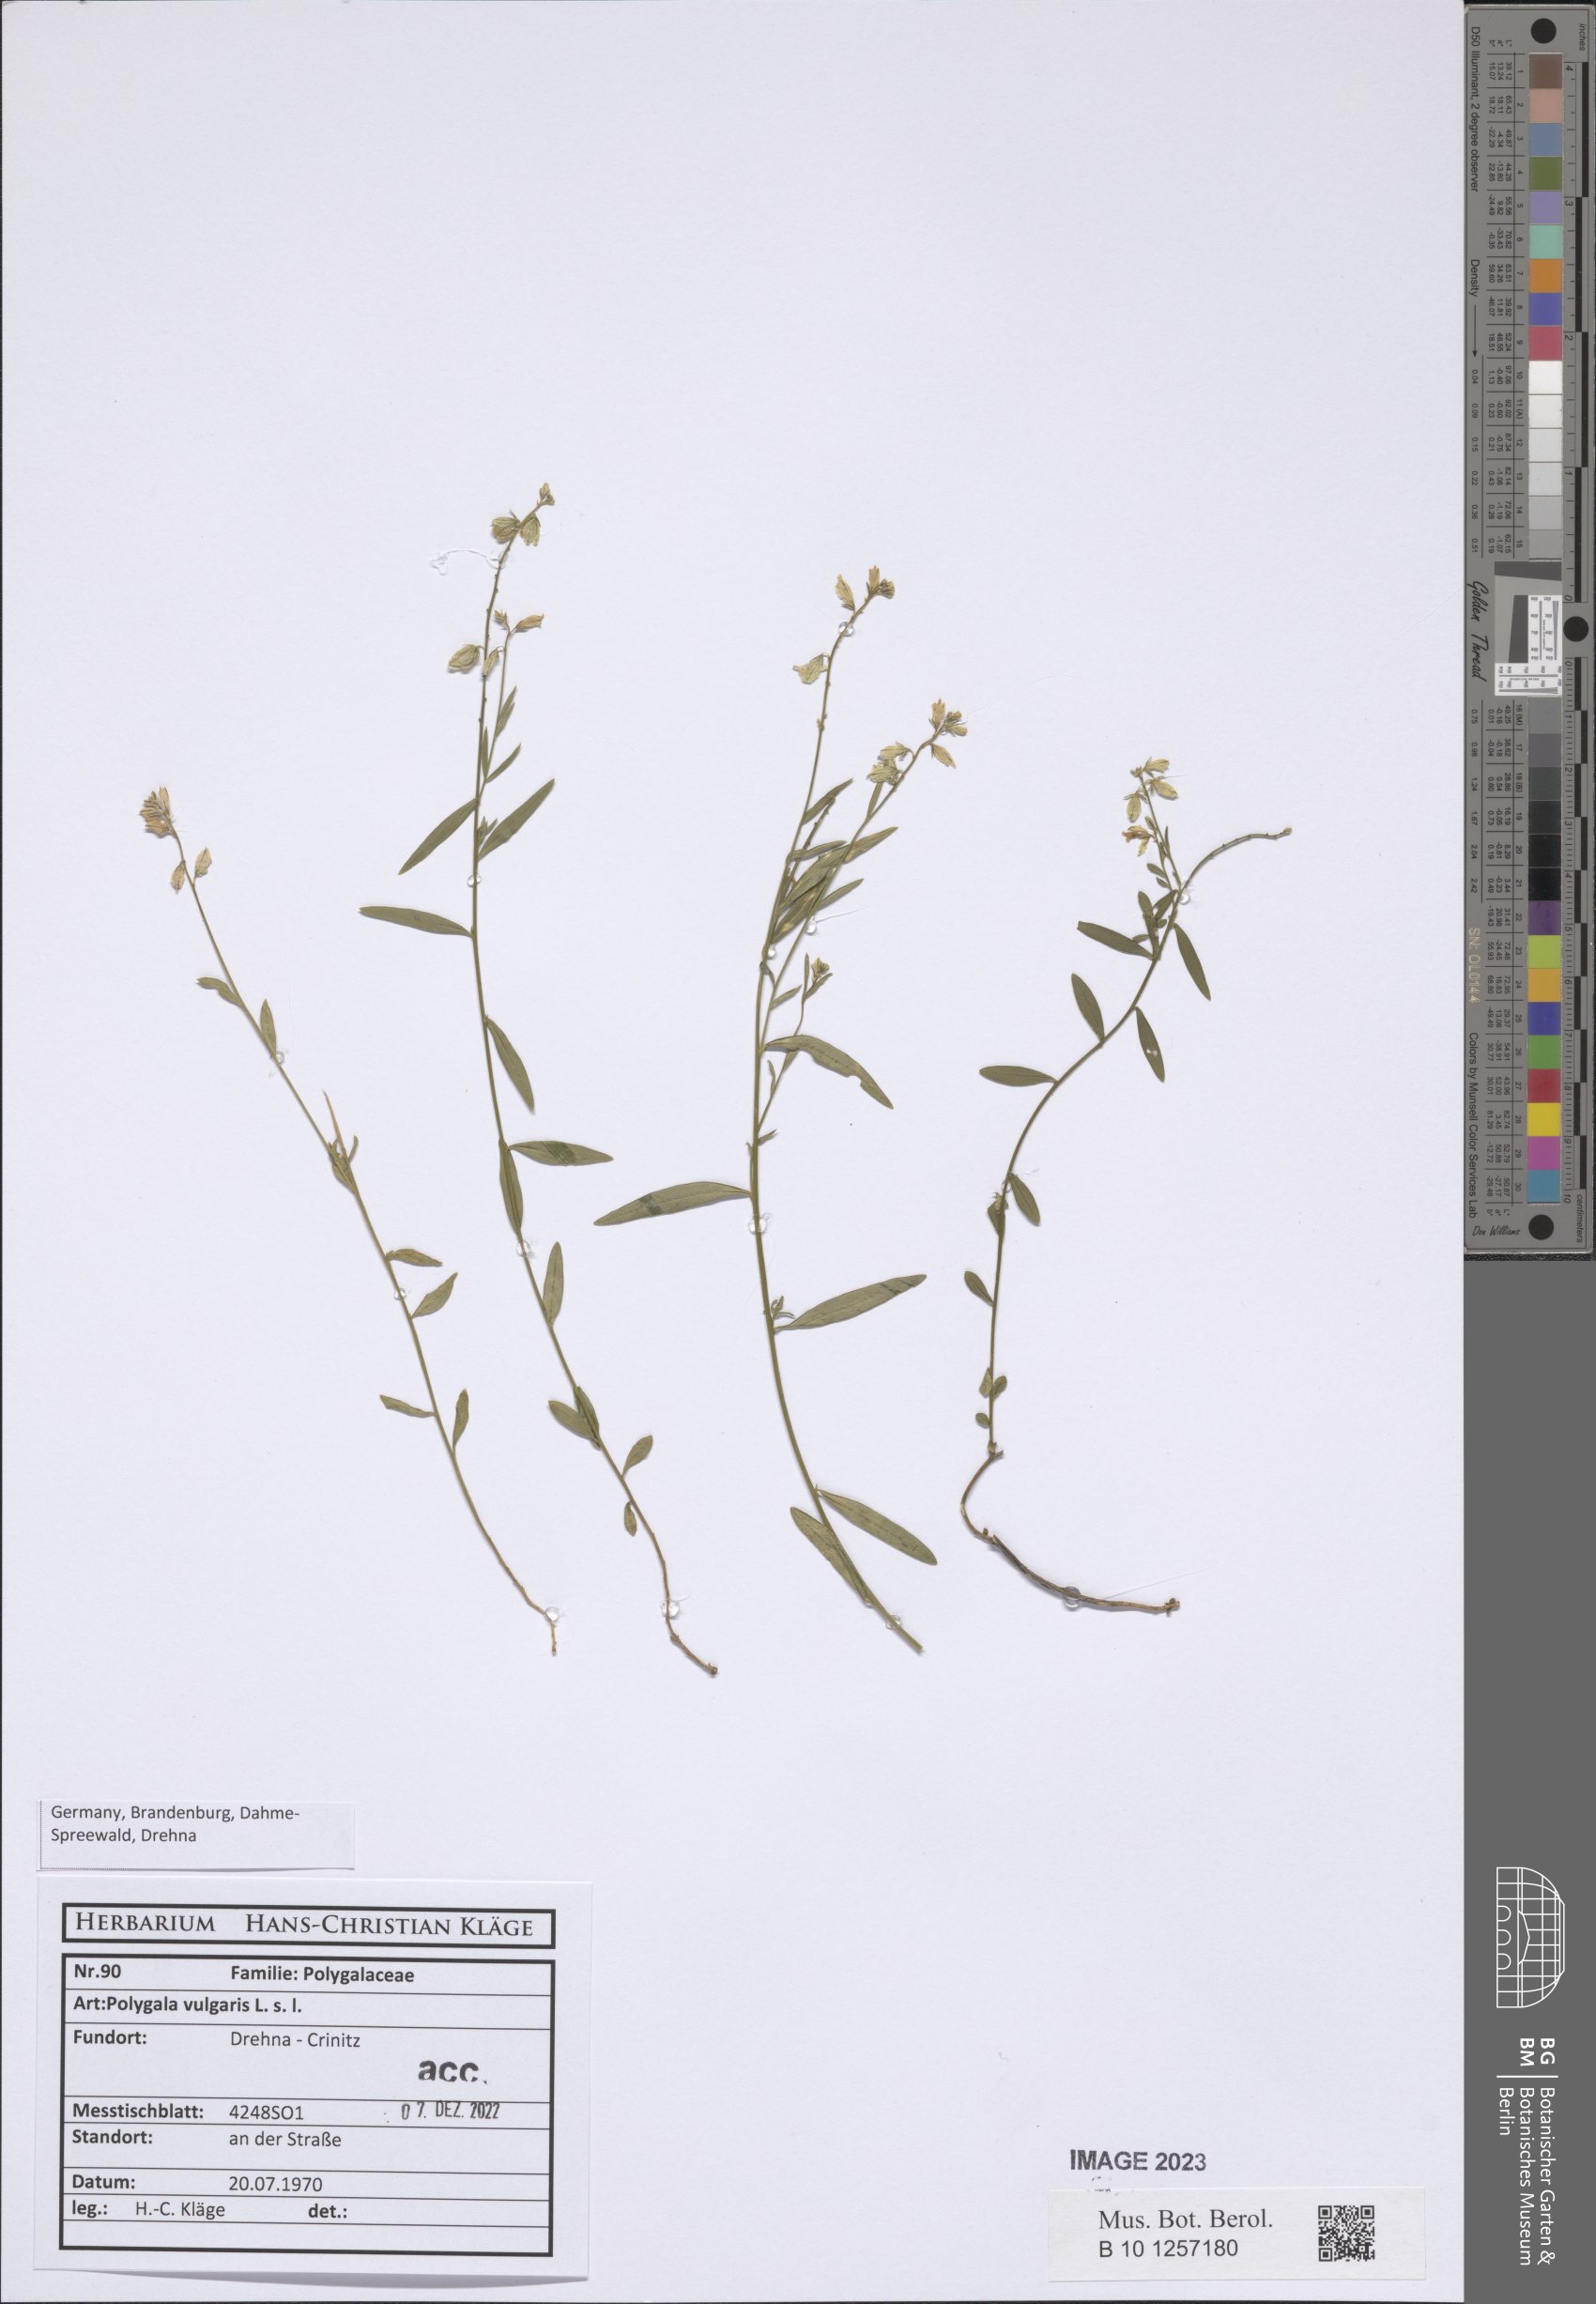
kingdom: Plantae
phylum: Tracheophyta
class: Magnoliopsida
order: Fabales
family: Polygalaceae
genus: Polygala
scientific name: Polygala vulgaris
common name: Common milkwort
